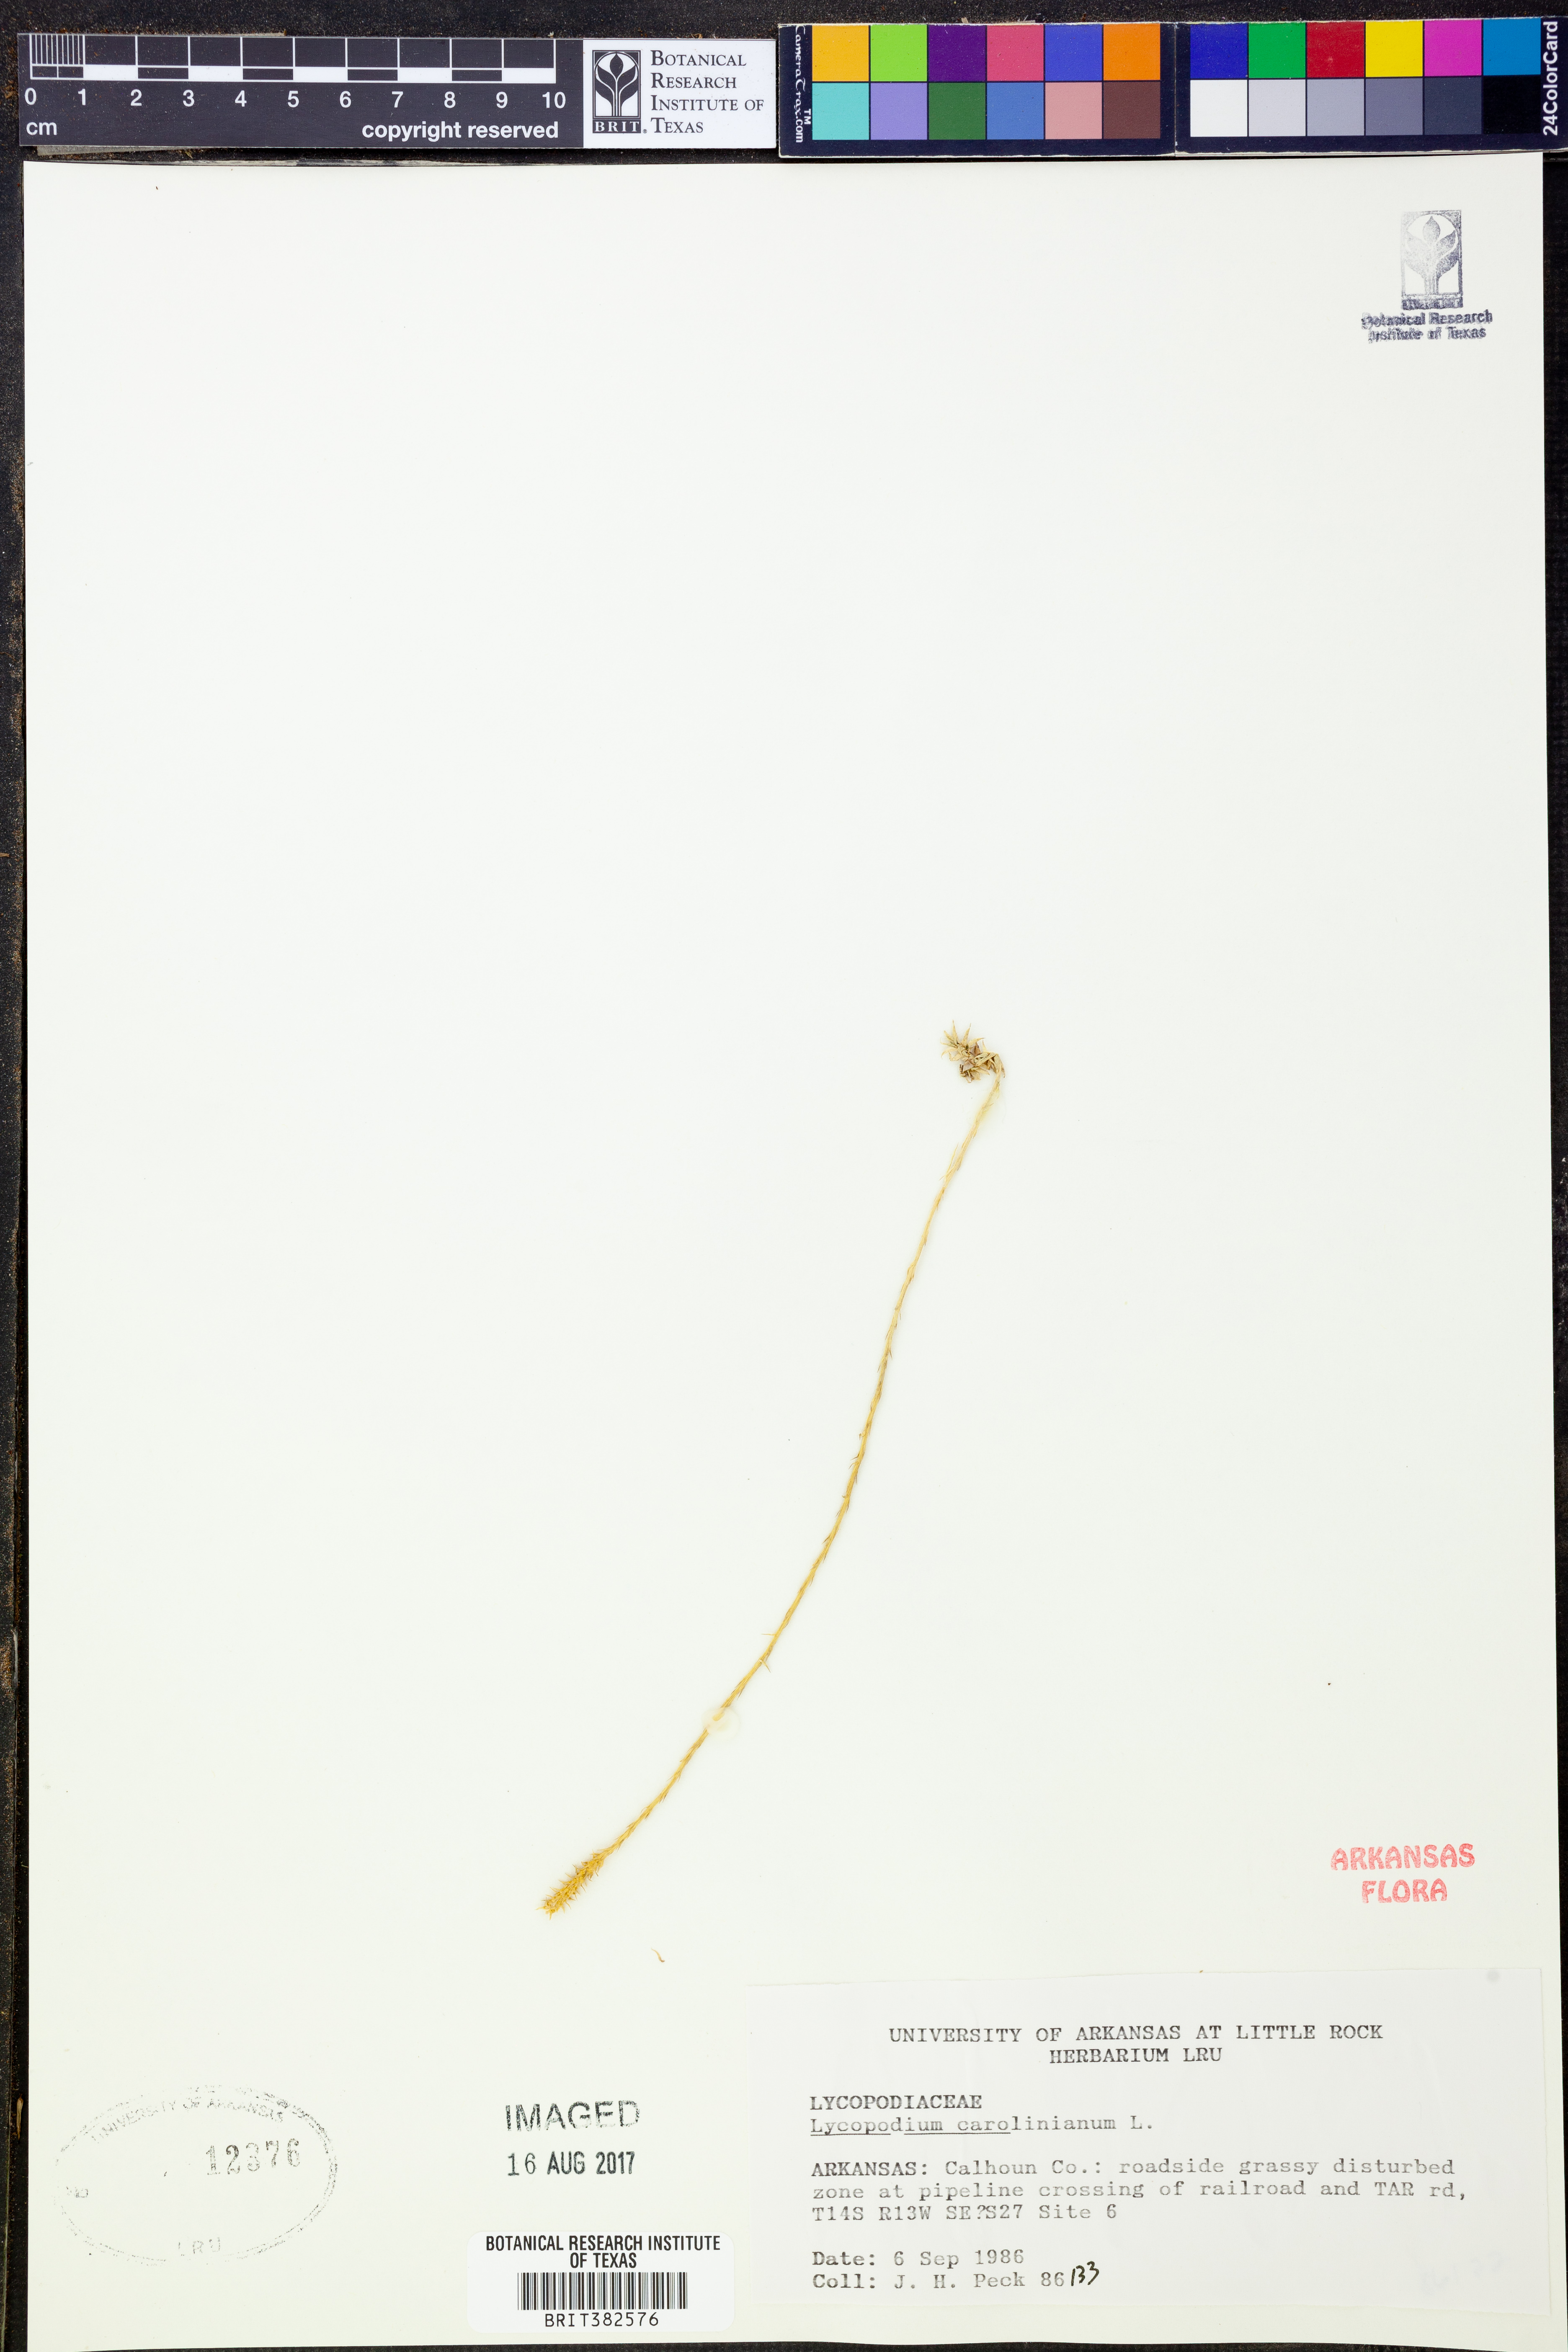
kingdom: Plantae
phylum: Tracheophyta
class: Lycopodiopsida
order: Lycopodiales
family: Lycopodiaceae
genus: Pseudolycopodiella
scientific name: Pseudolycopodiella caroliniana
